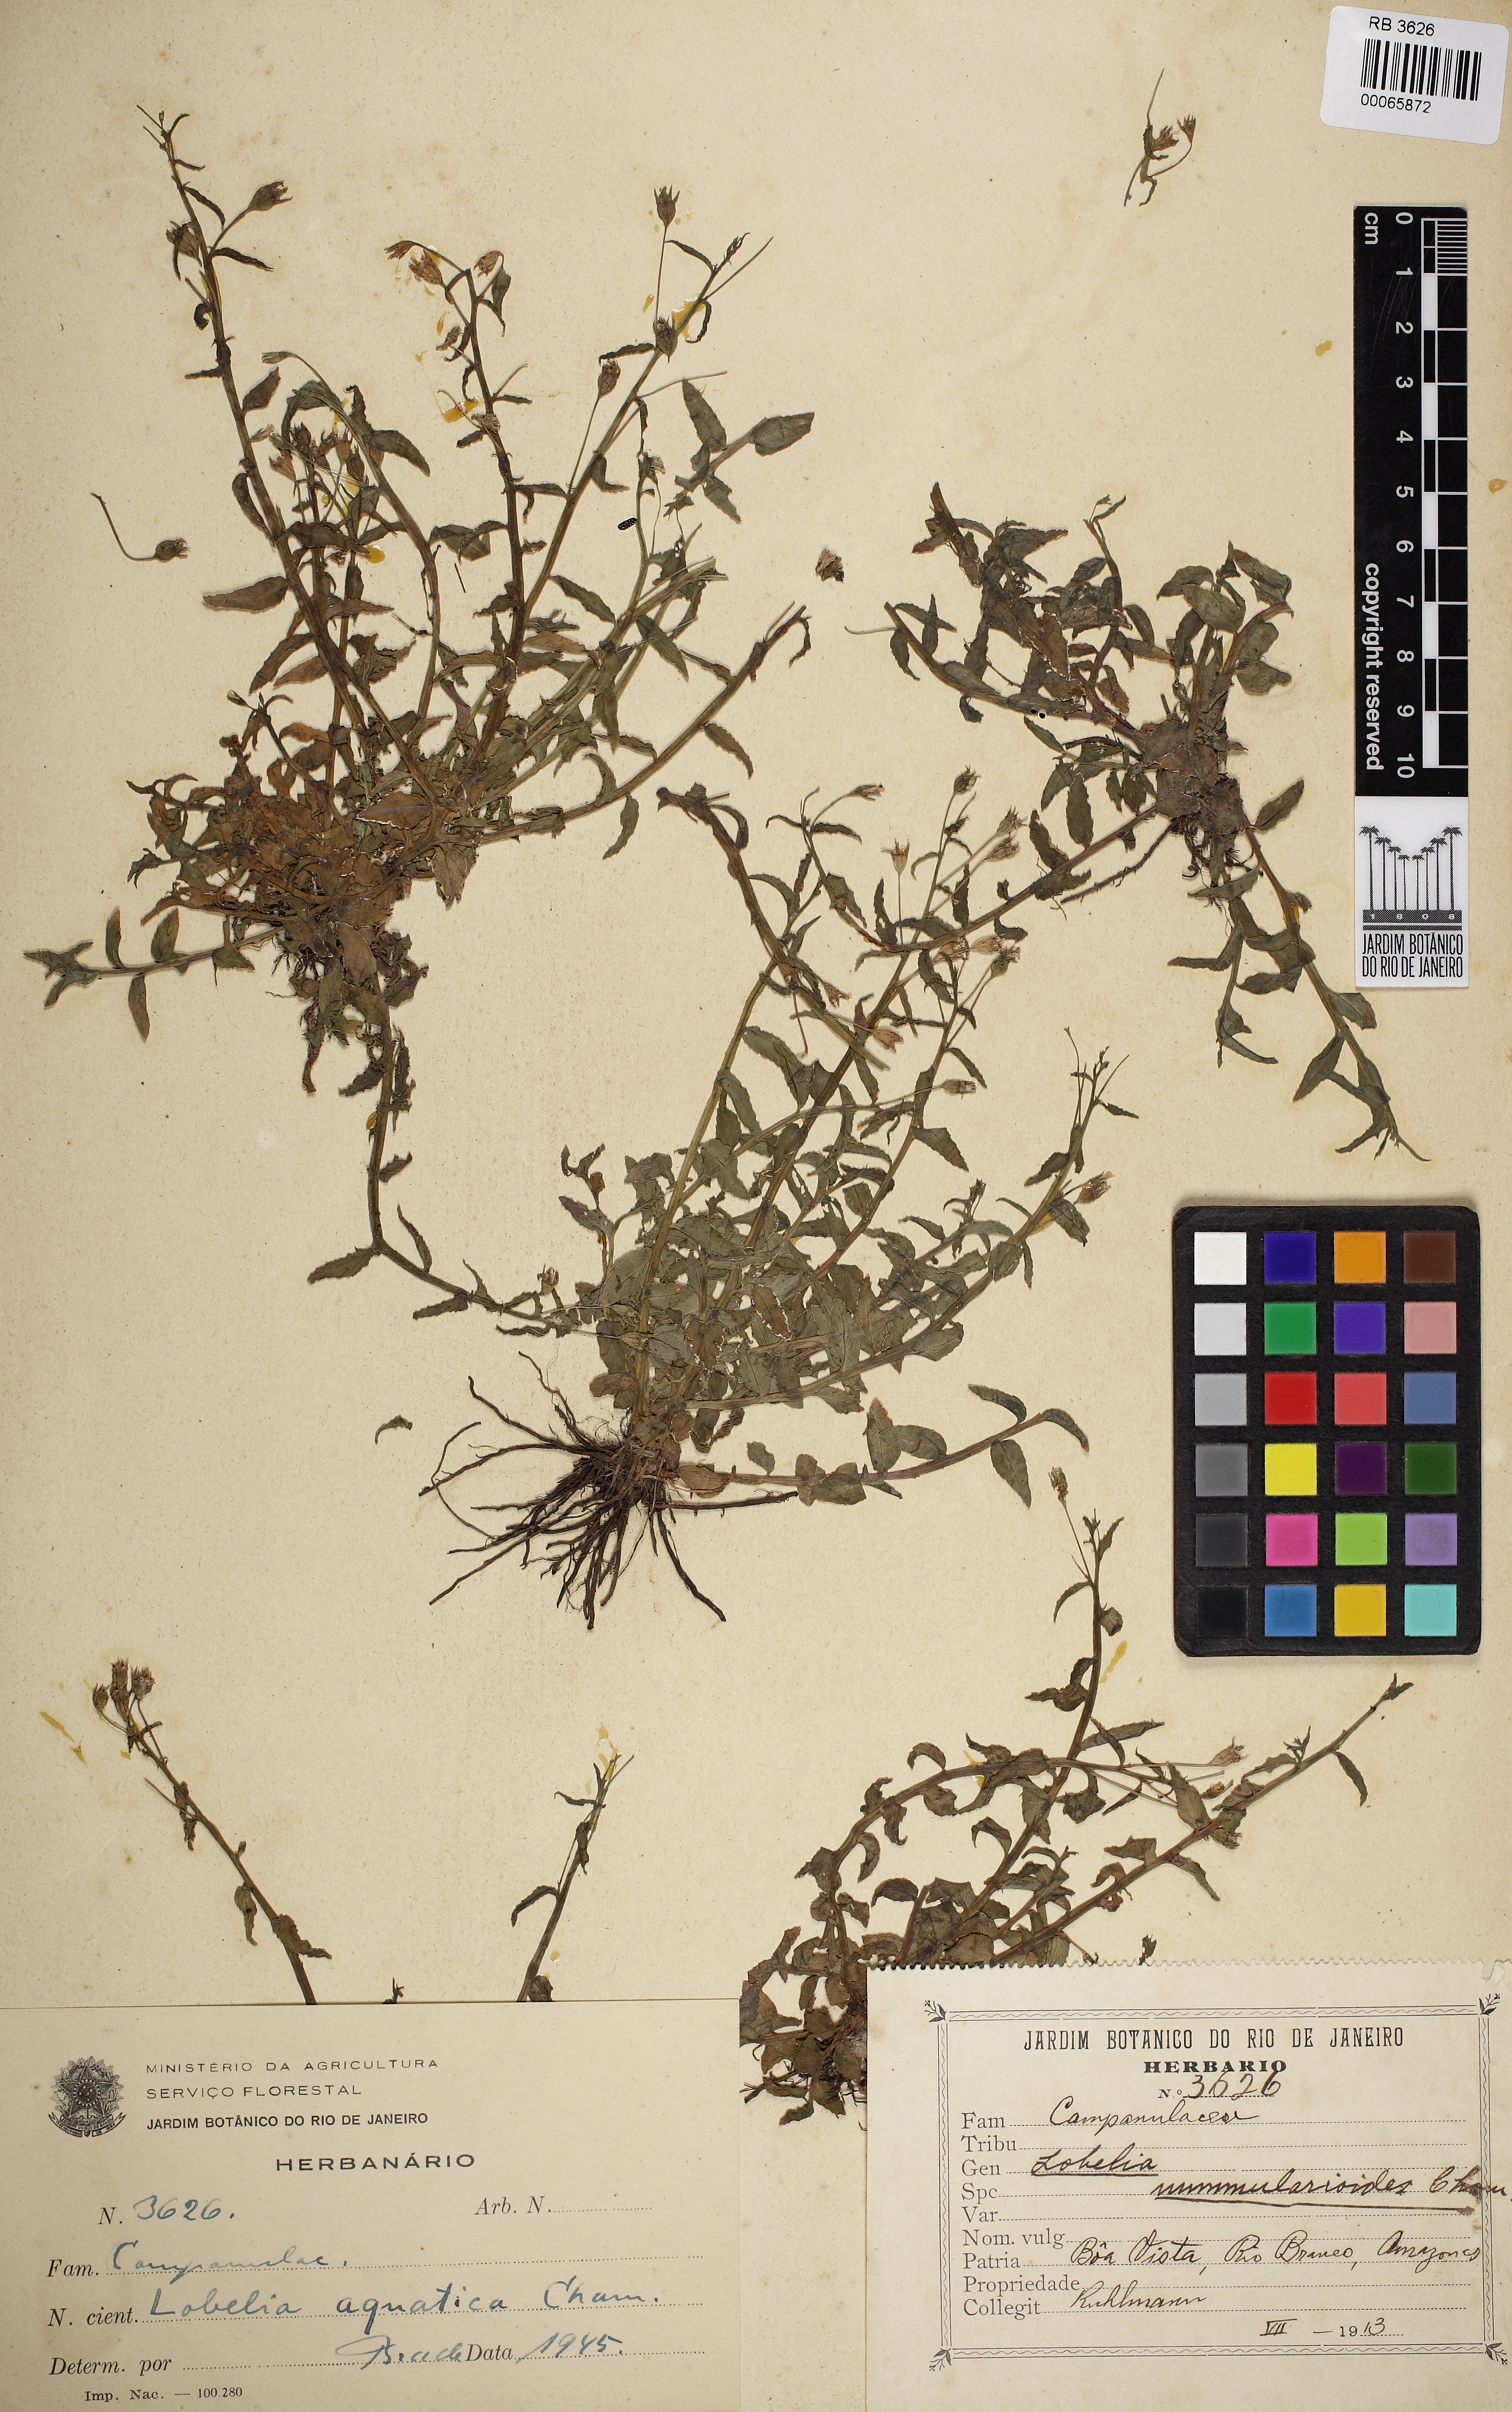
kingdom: Plantae
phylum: Tracheophyta
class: Magnoliopsida
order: Asterales
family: Campanulaceae
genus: Lobelia
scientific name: Lobelia aquatica
